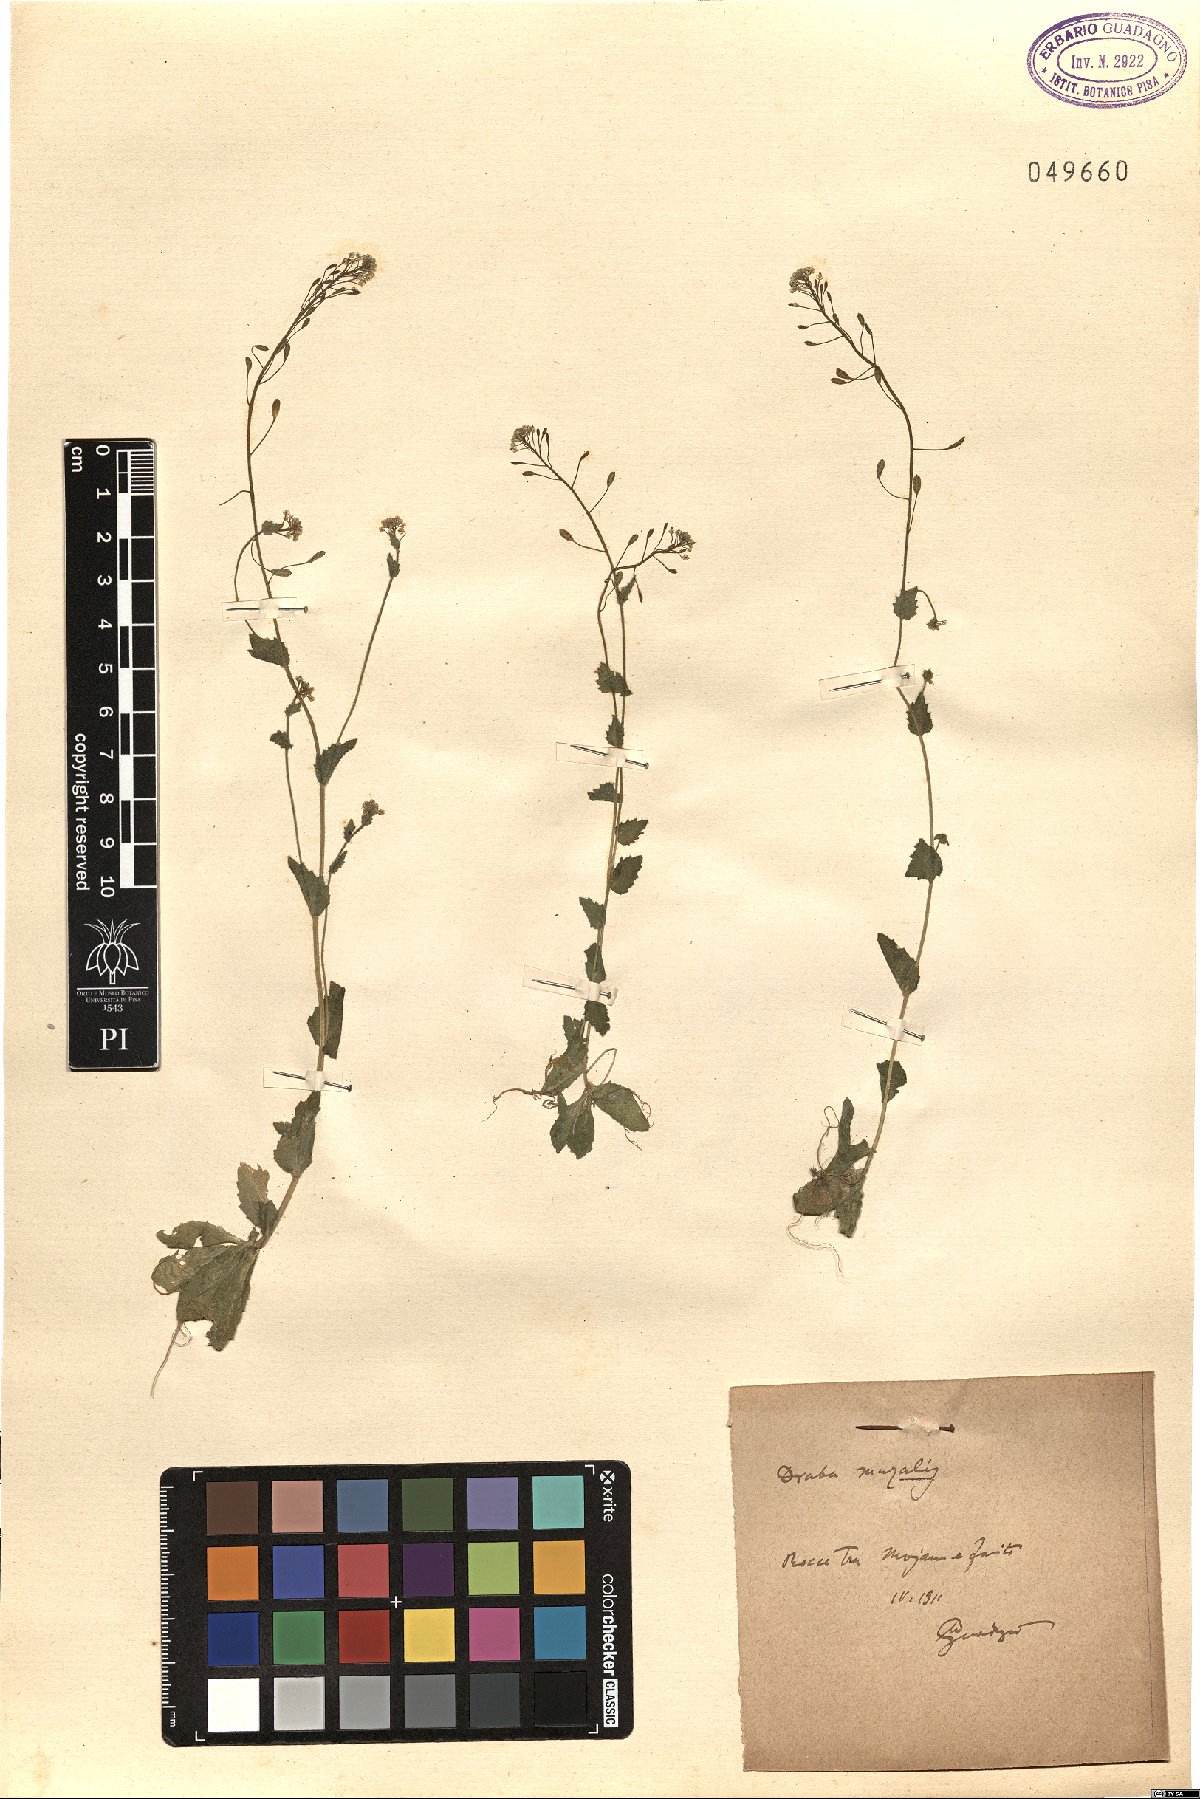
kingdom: Plantae
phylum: Tracheophyta
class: Magnoliopsida
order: Brassicales
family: Brassicaceae
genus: Drabella
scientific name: Drabella muralis
